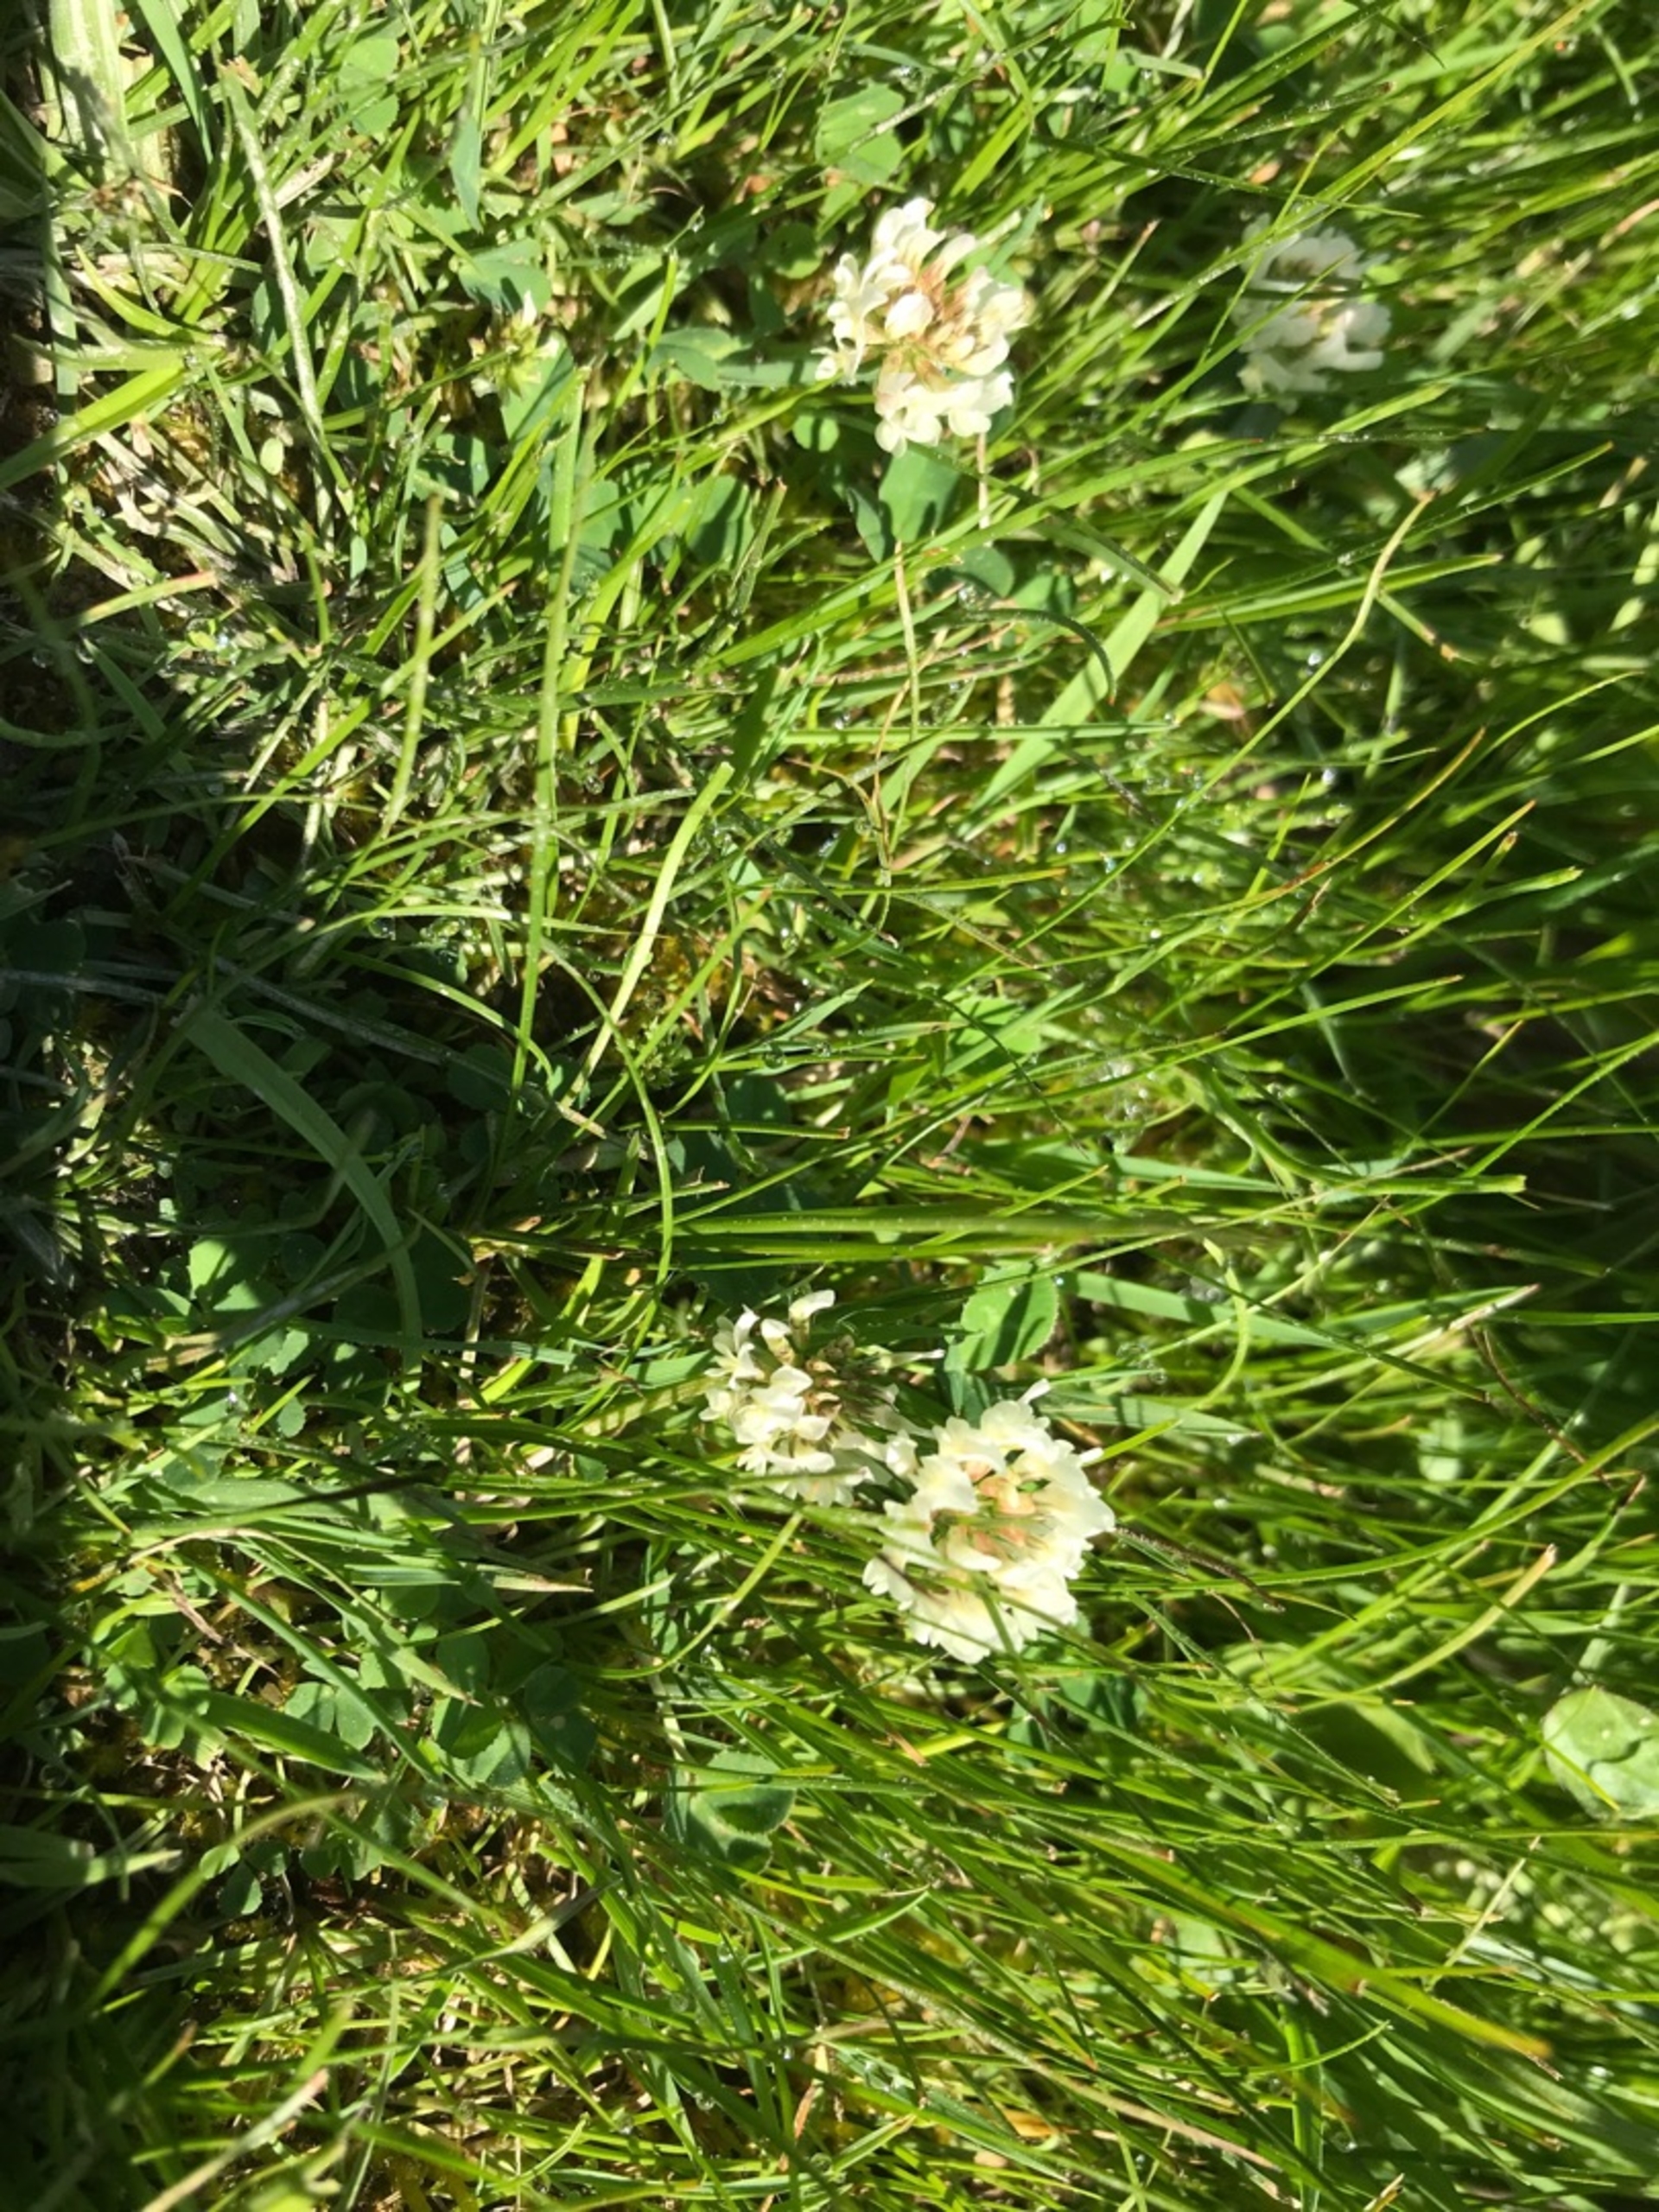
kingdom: Plantae
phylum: Tracheophyta
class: Magnoliopsida
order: Fabales
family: Fabaceae
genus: Trifolium
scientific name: Trifolium repens
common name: Hvid-kløver
